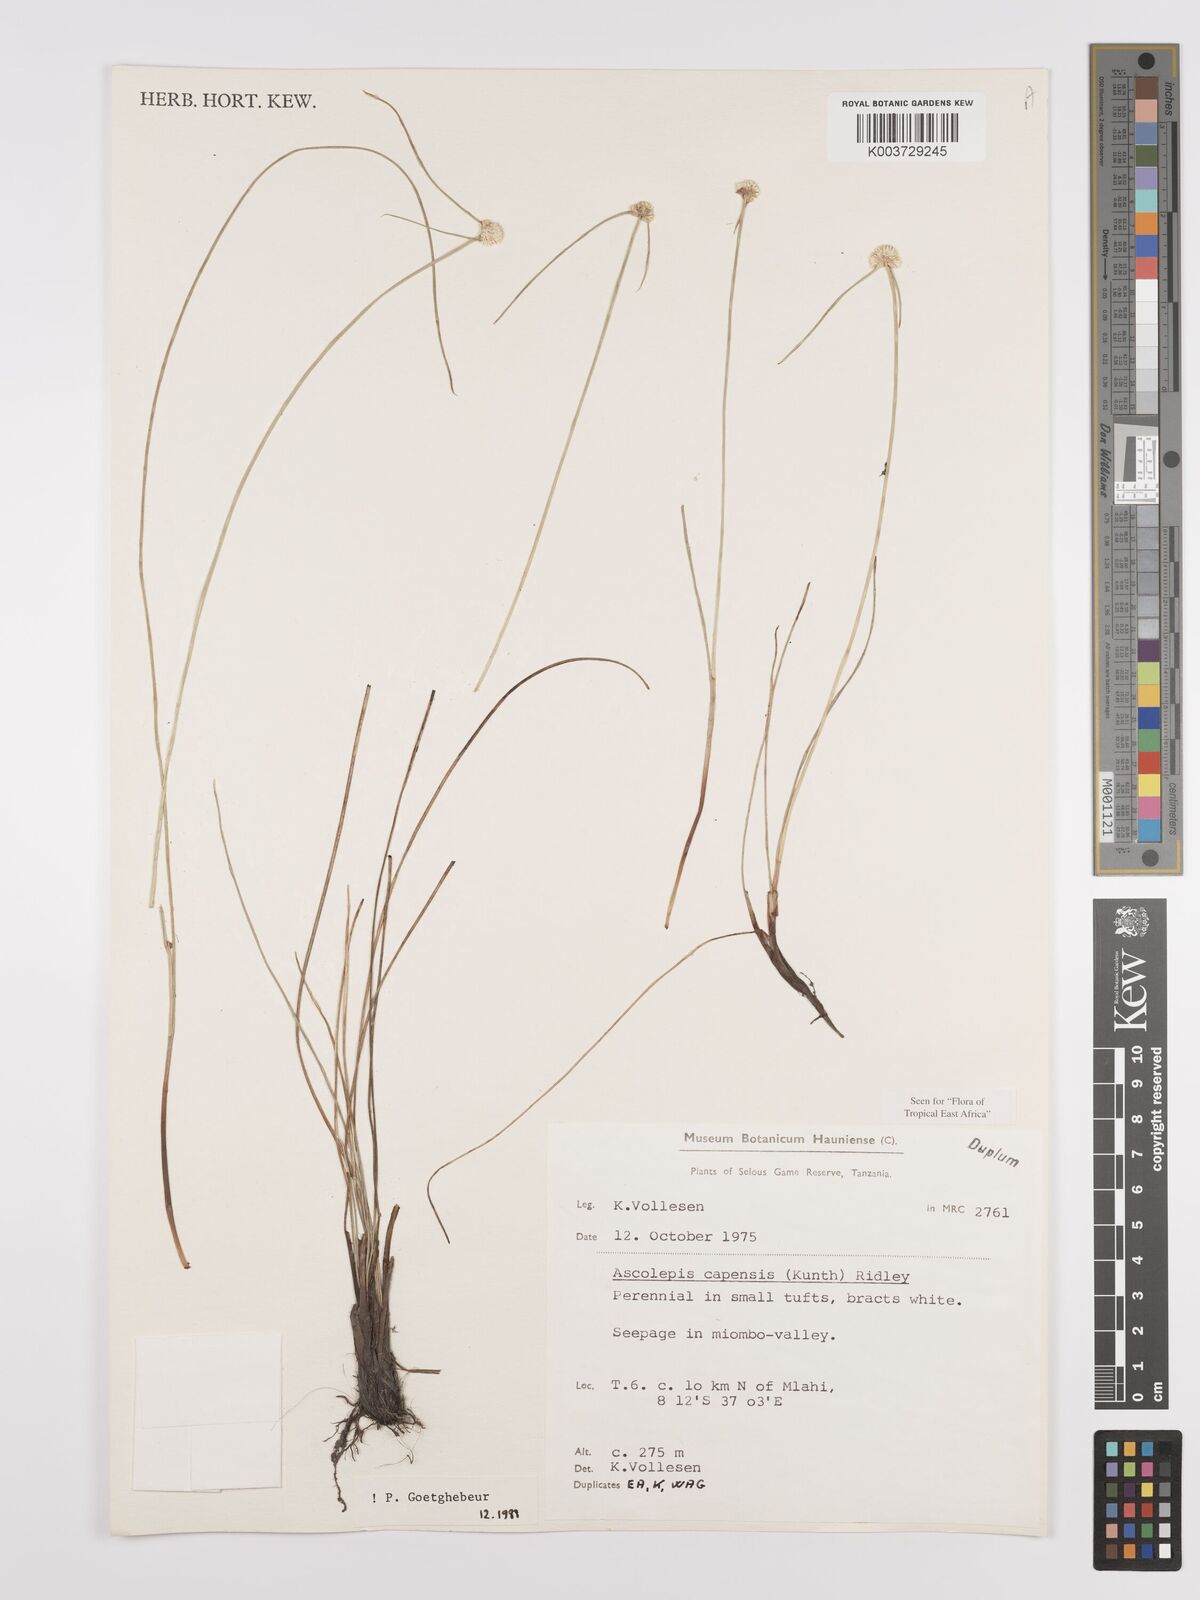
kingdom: Plantae
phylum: Tracheophyta
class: Liliopsida
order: Poales
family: Cyperaceae
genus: Cyperus
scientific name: Cyperus
